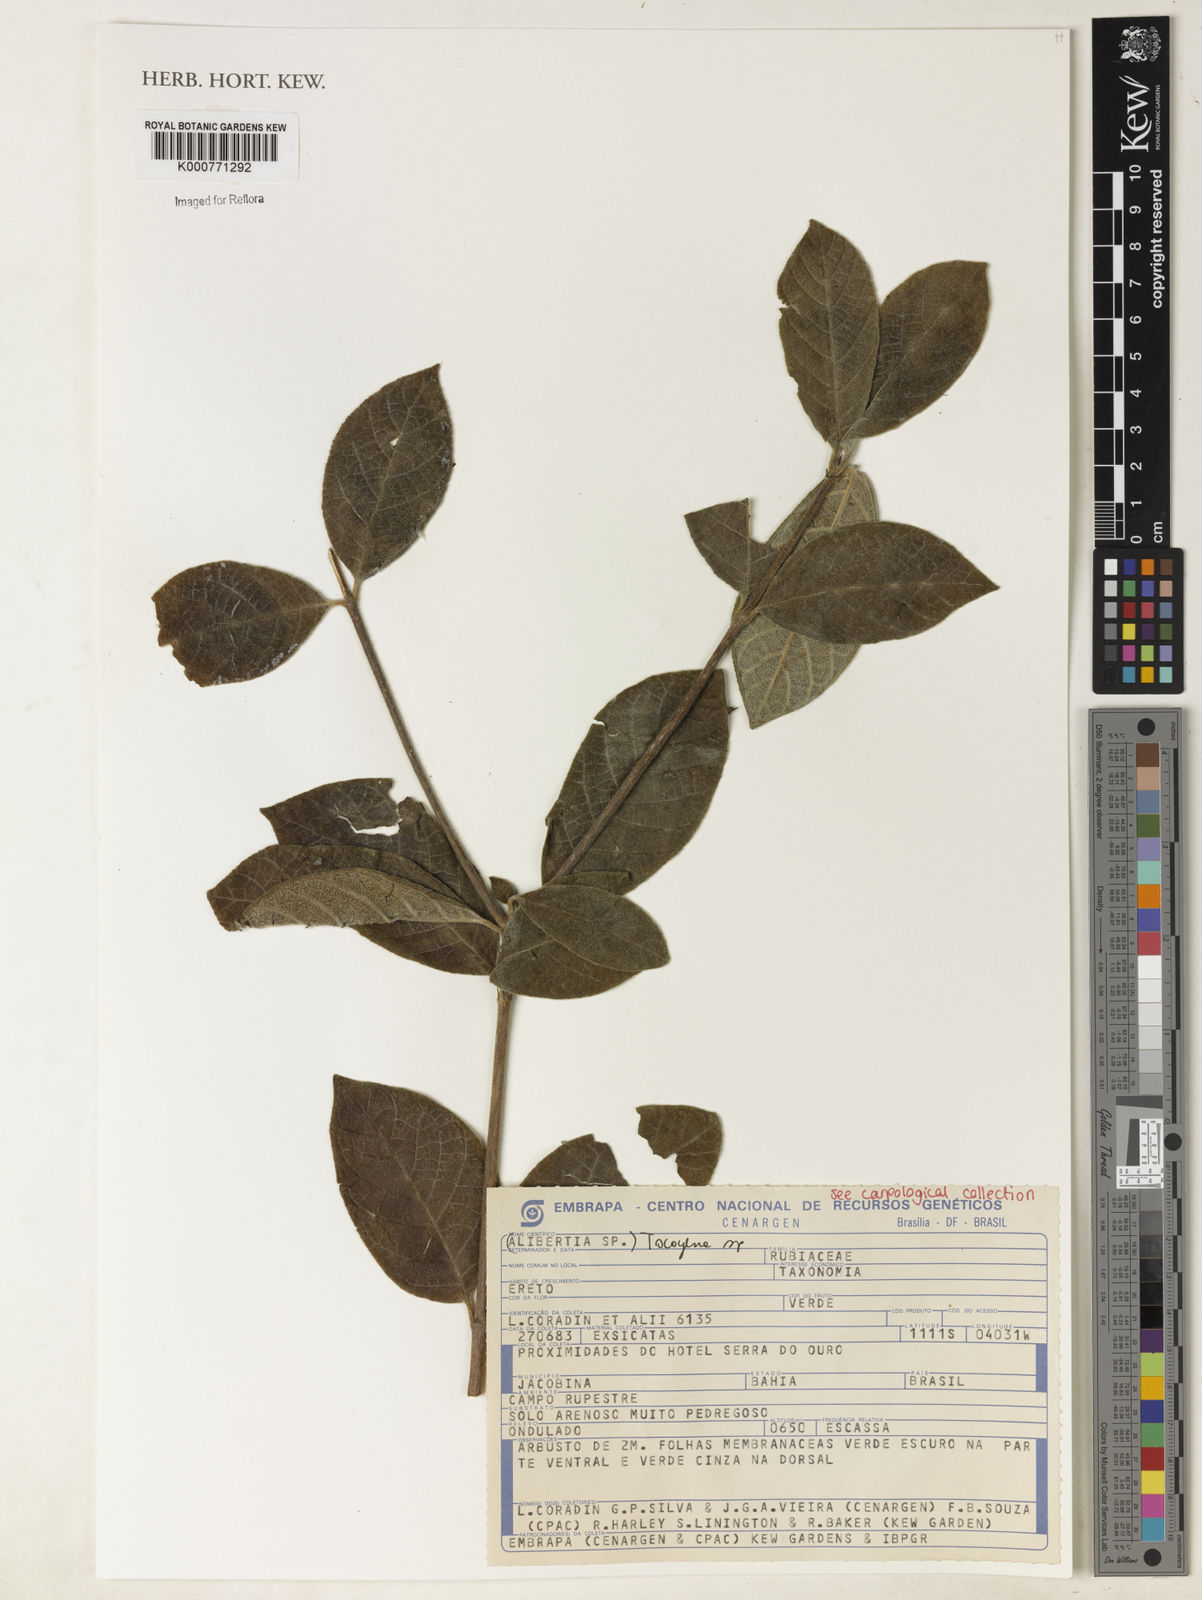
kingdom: Plantae
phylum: Tracheophyta
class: Magnoliopsida
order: Gentianales
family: Rubiaceae
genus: Tocoyena
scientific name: Tocoyena
